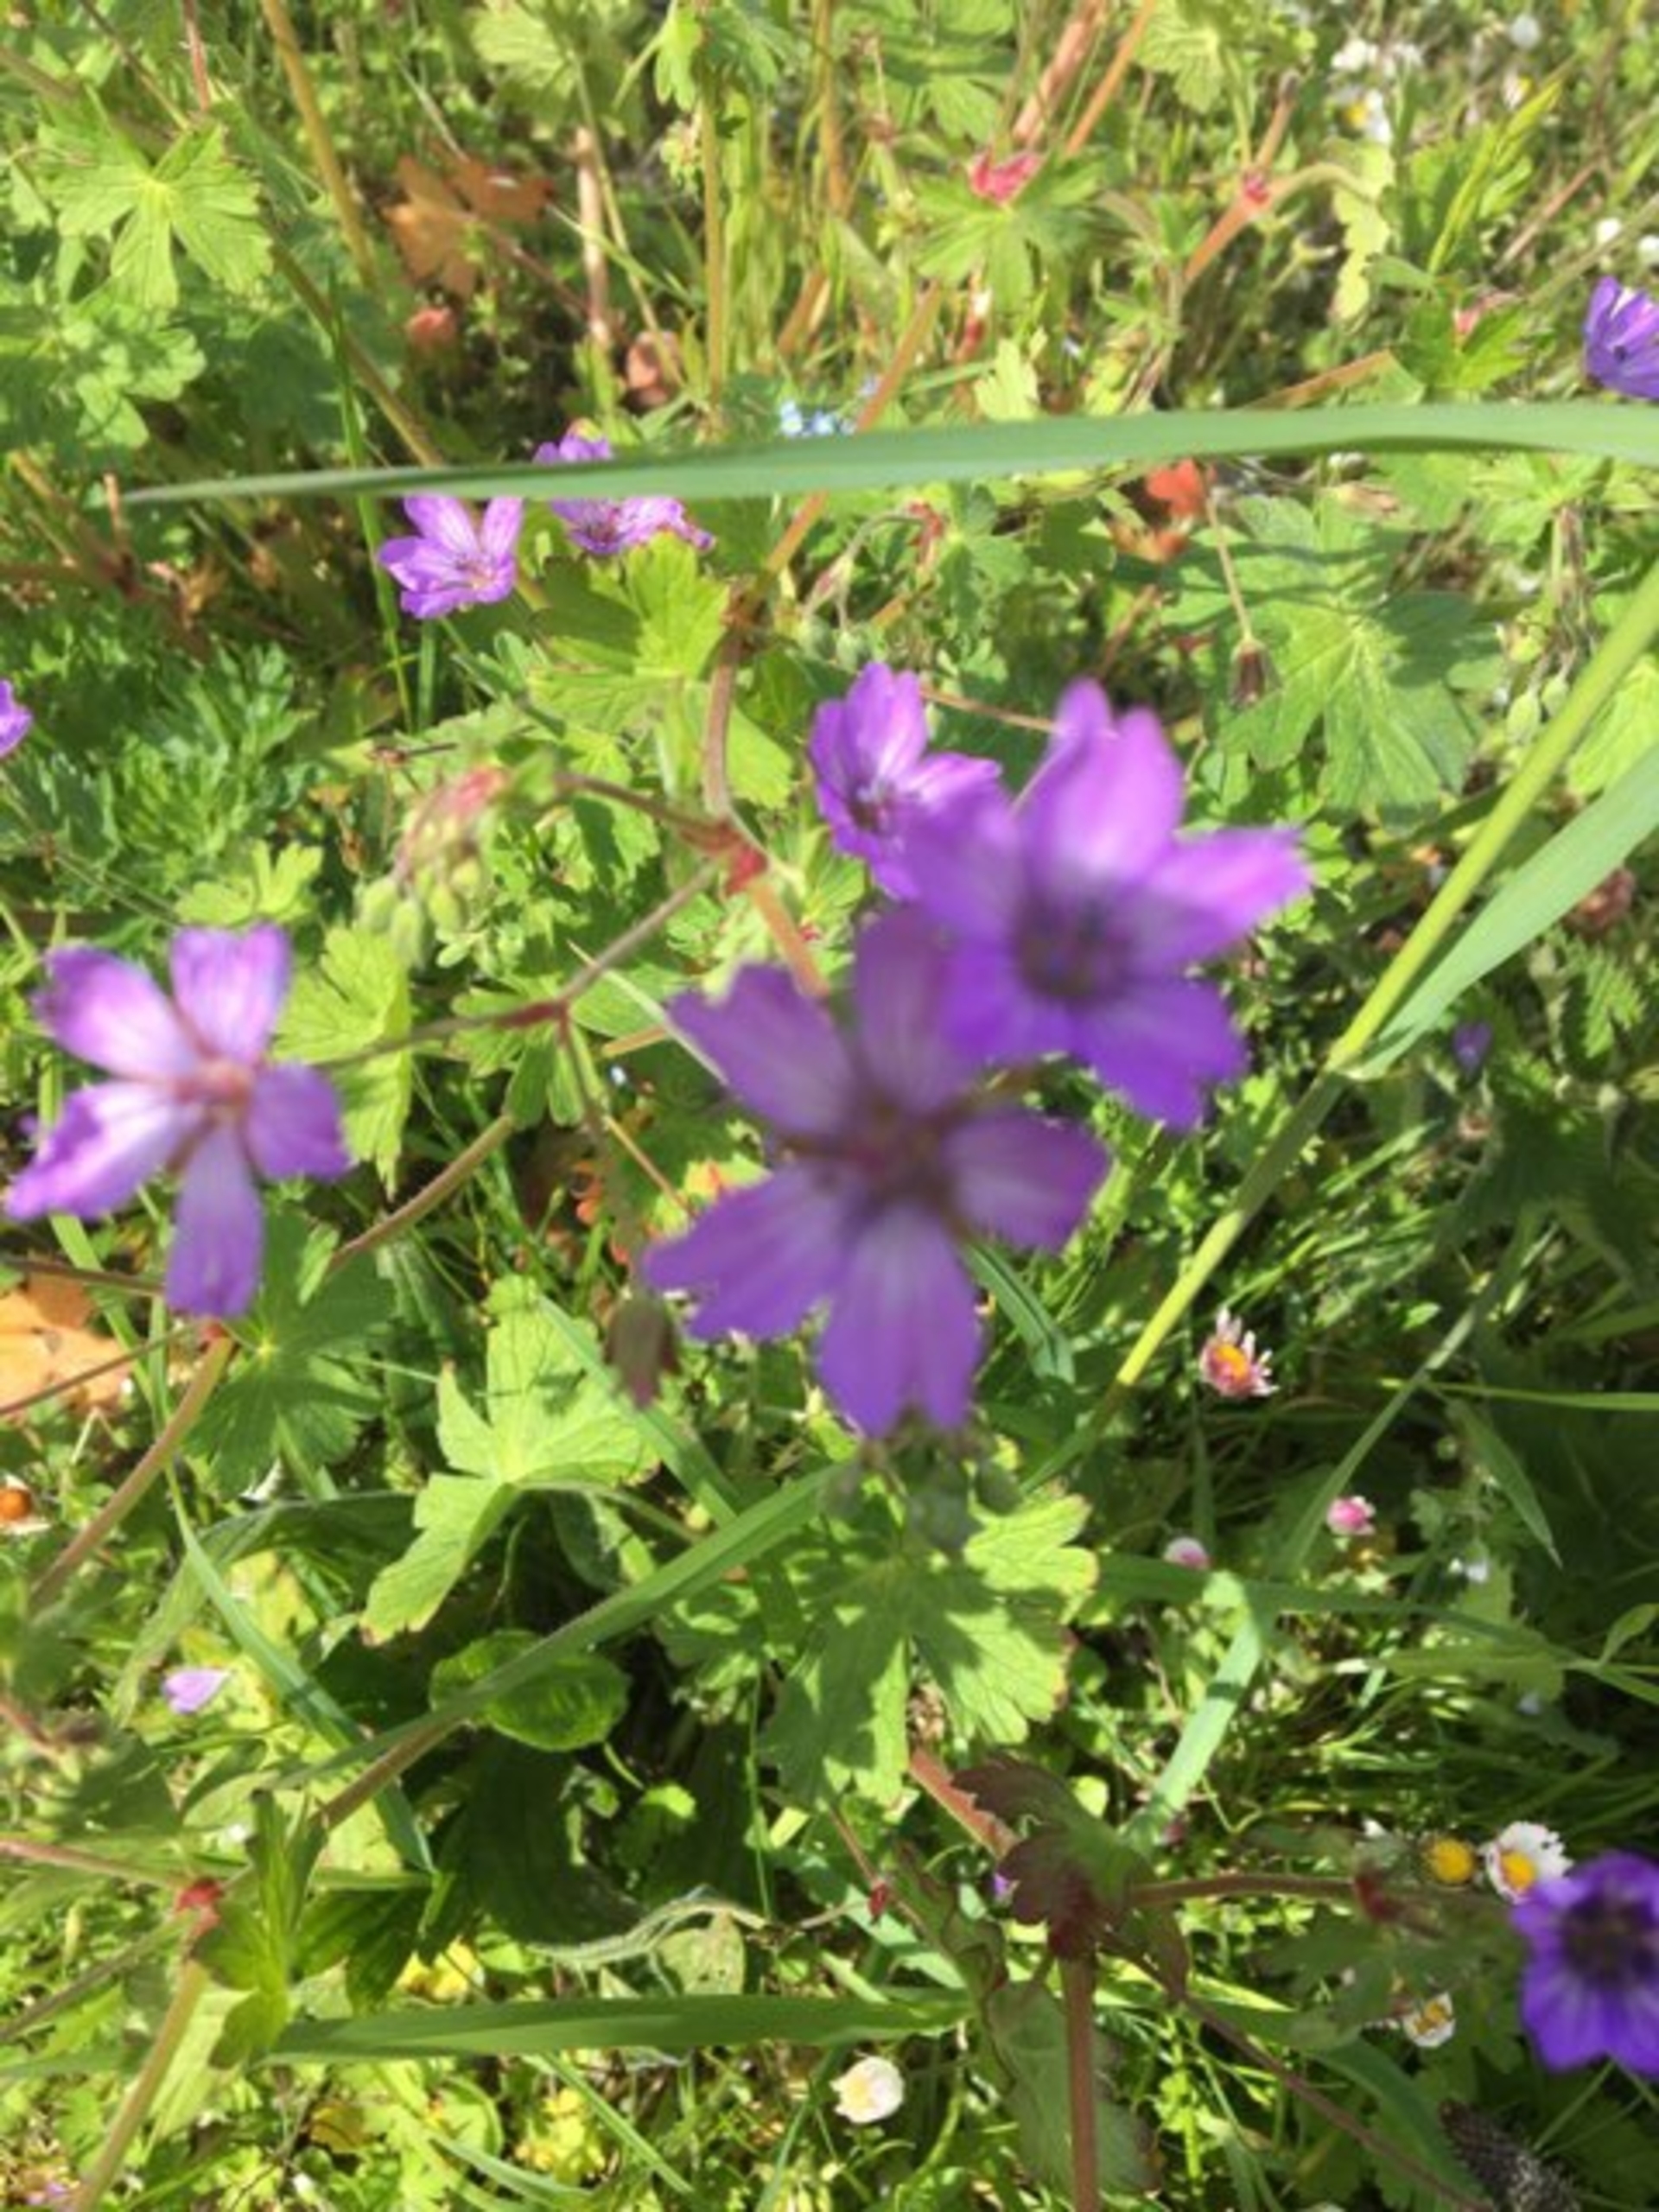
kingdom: Plantae
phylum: Tracheophyta
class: Magnoliopsida
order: Geraniales
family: Geraniaceae
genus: Geranium
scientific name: Geranium pyrenaicum
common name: Pyrenæisk storkenæb
